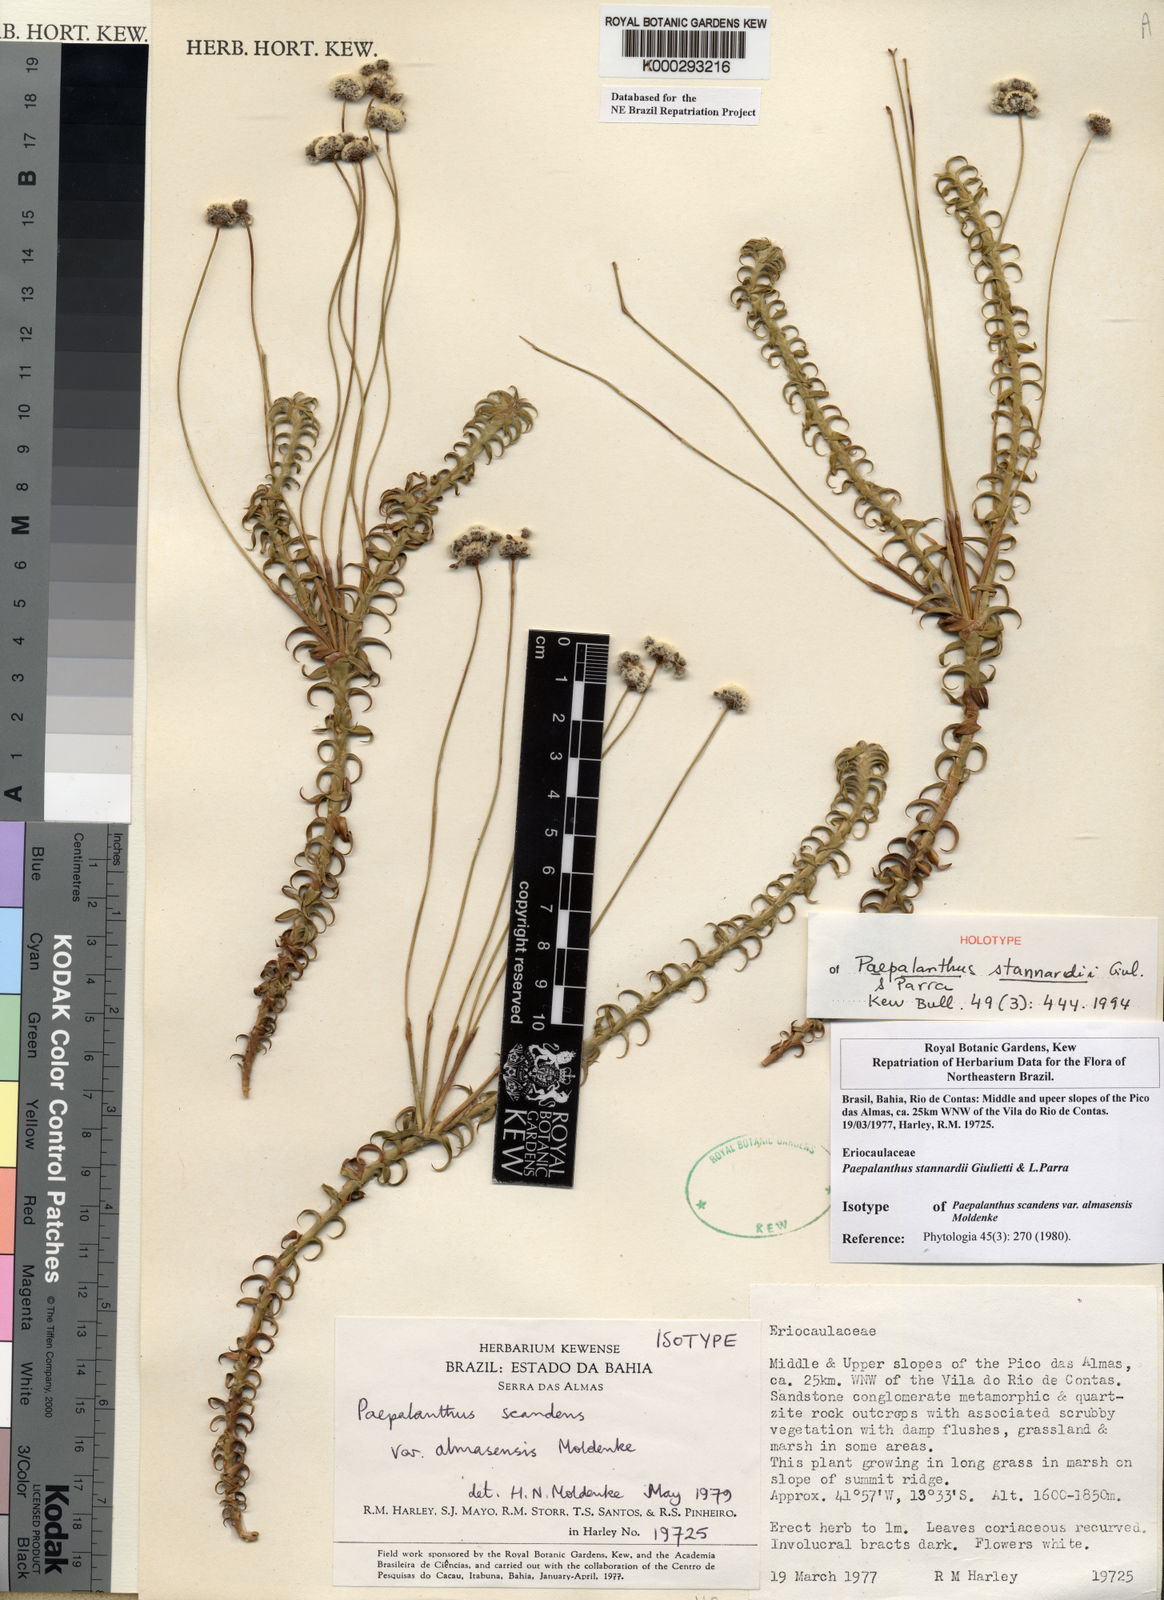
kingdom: Plantae
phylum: Tracheophyta
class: Liliopsida
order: Poales
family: Eriocaulaceae
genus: Paepalanthus
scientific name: Paepalanthus stannardii
